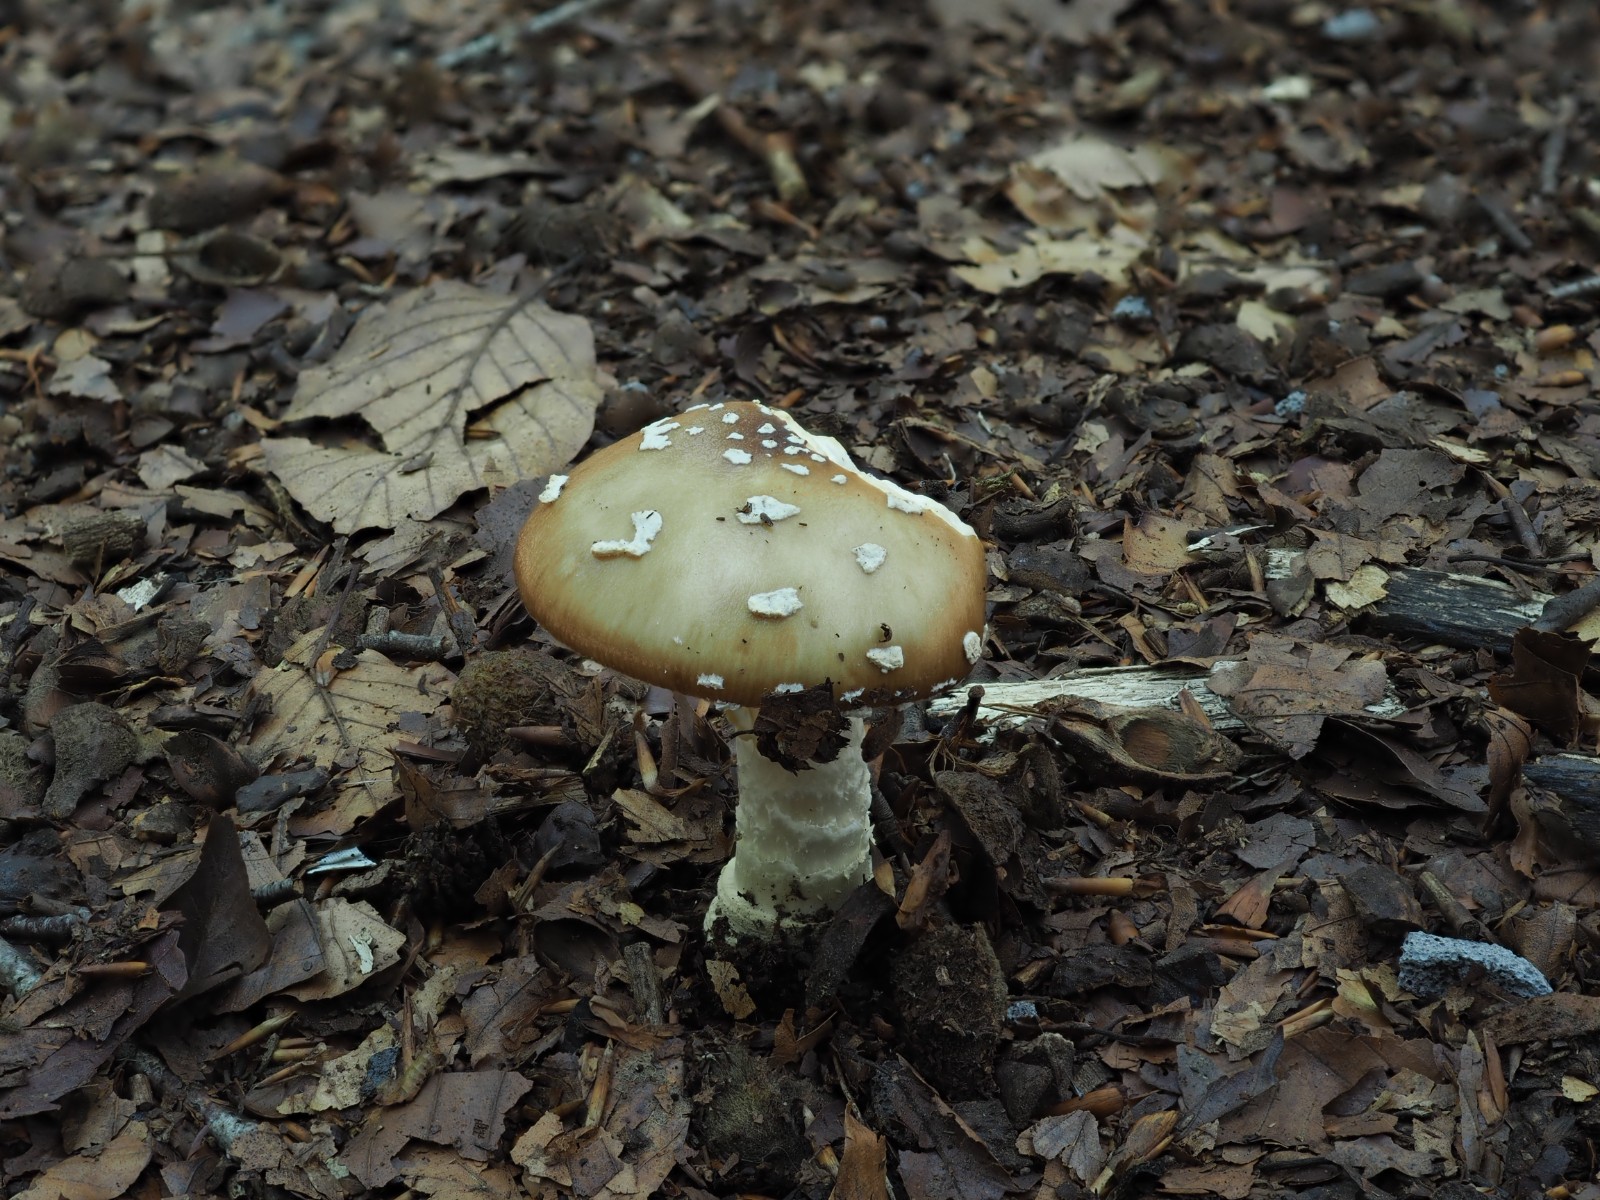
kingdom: Fungi
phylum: Basidiomycota
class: Agaricomycetes
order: Agaricales
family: Amanitaceae
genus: Amanita
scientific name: Amanita pantherina
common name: panter-fluesvamp
